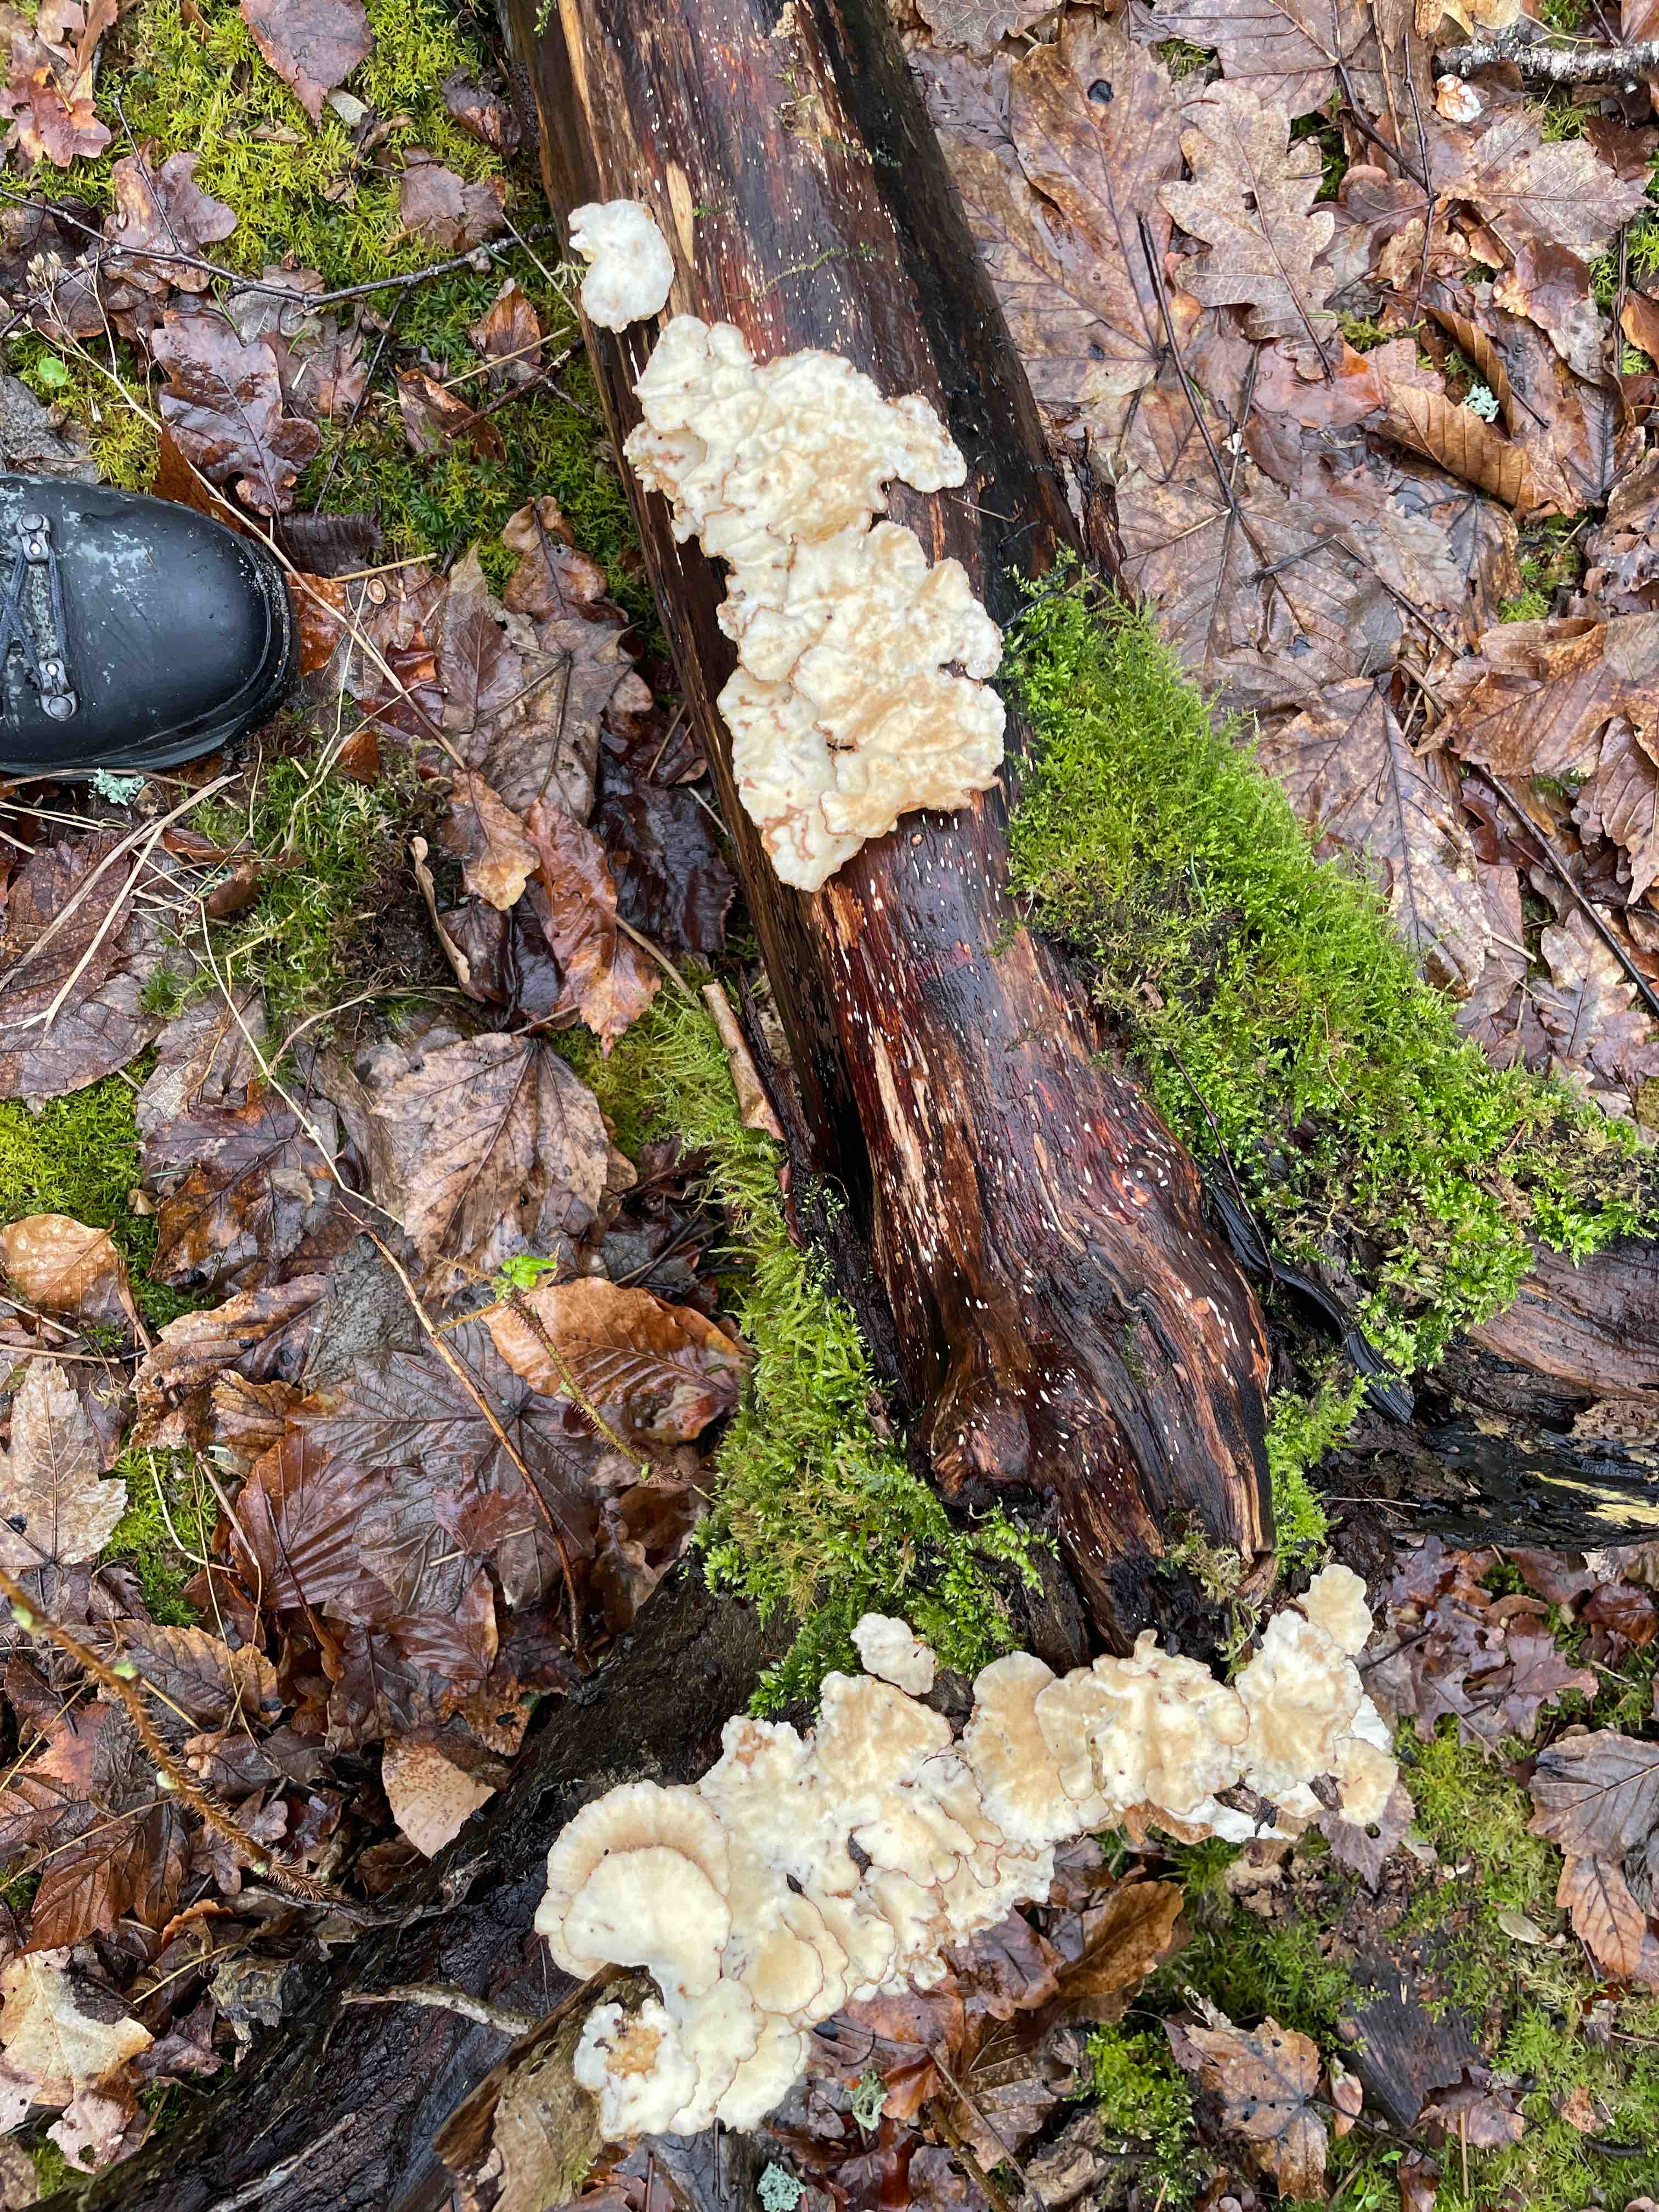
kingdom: Fungi
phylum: Basidiomycota
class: Agaricomycetes
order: Polyporales
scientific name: Polyporales
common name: poresvampordenen
